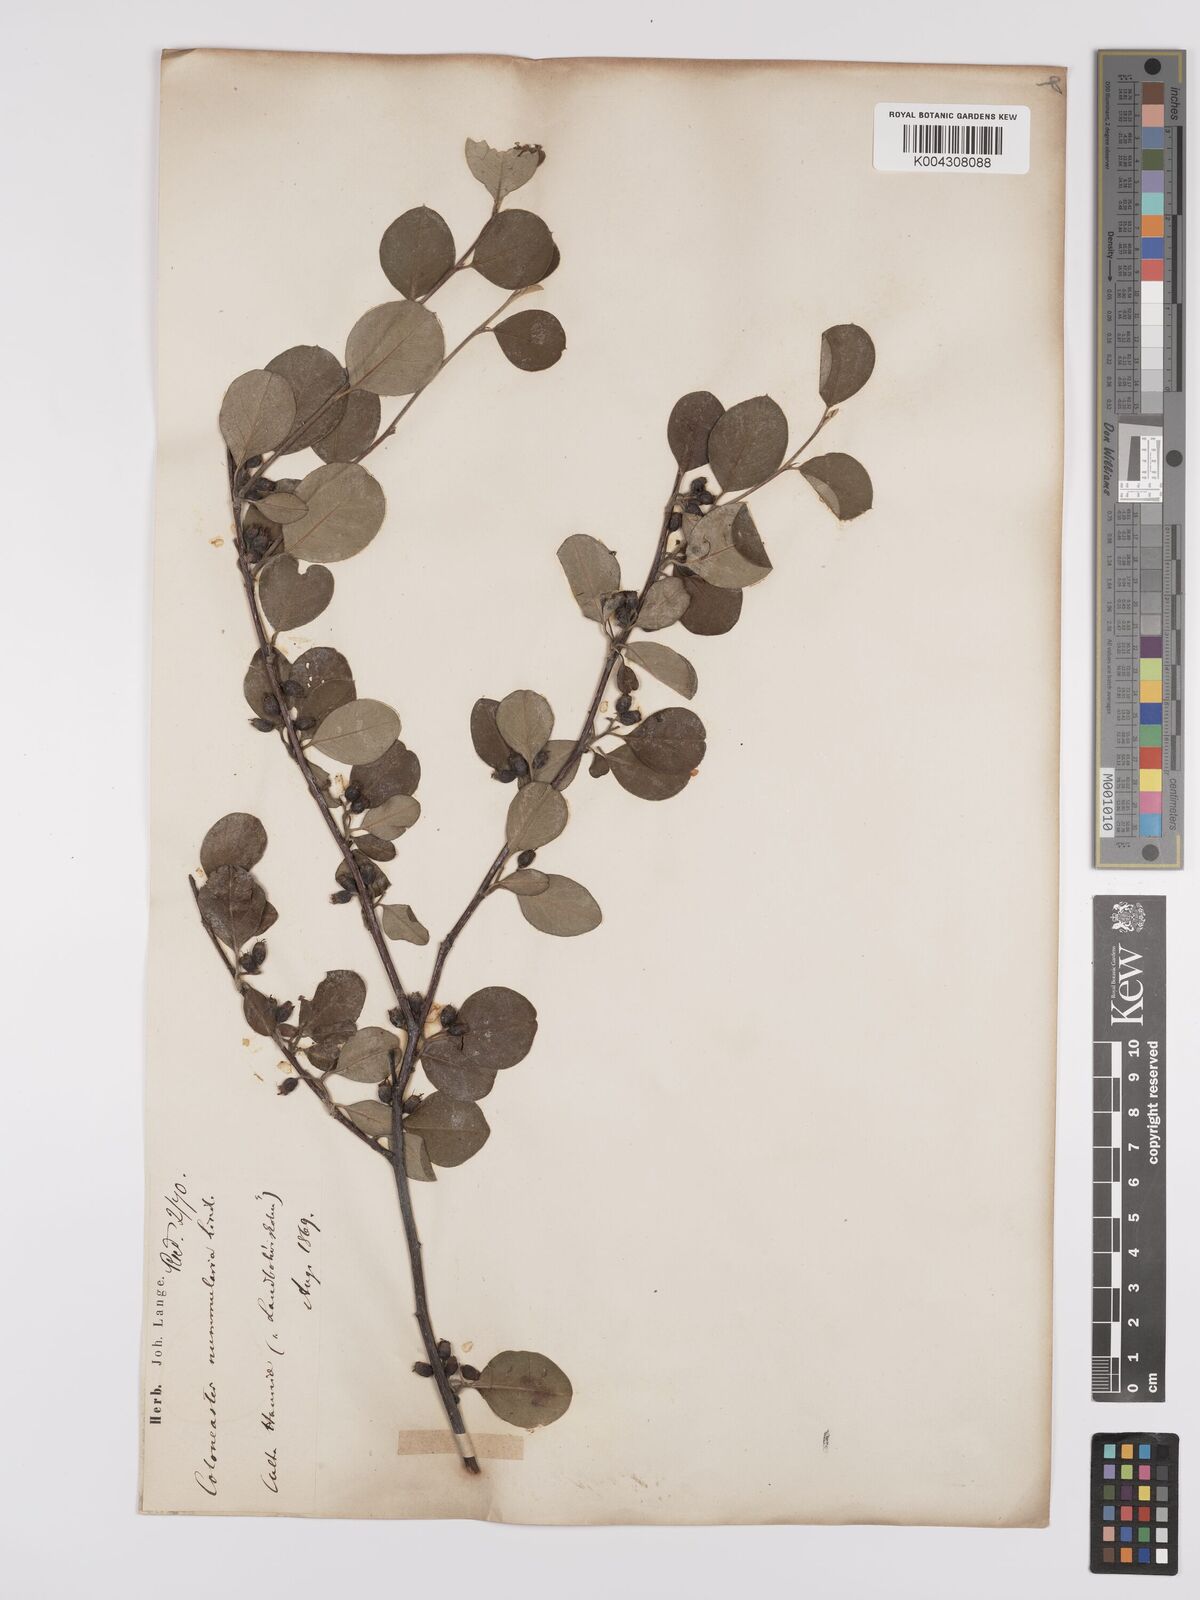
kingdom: Plantae
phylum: Tracheophyta
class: Magnoliopsida
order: Rosales
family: Rosaceae
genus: Cotoneaster
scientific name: Cotoneaster lindleyi
